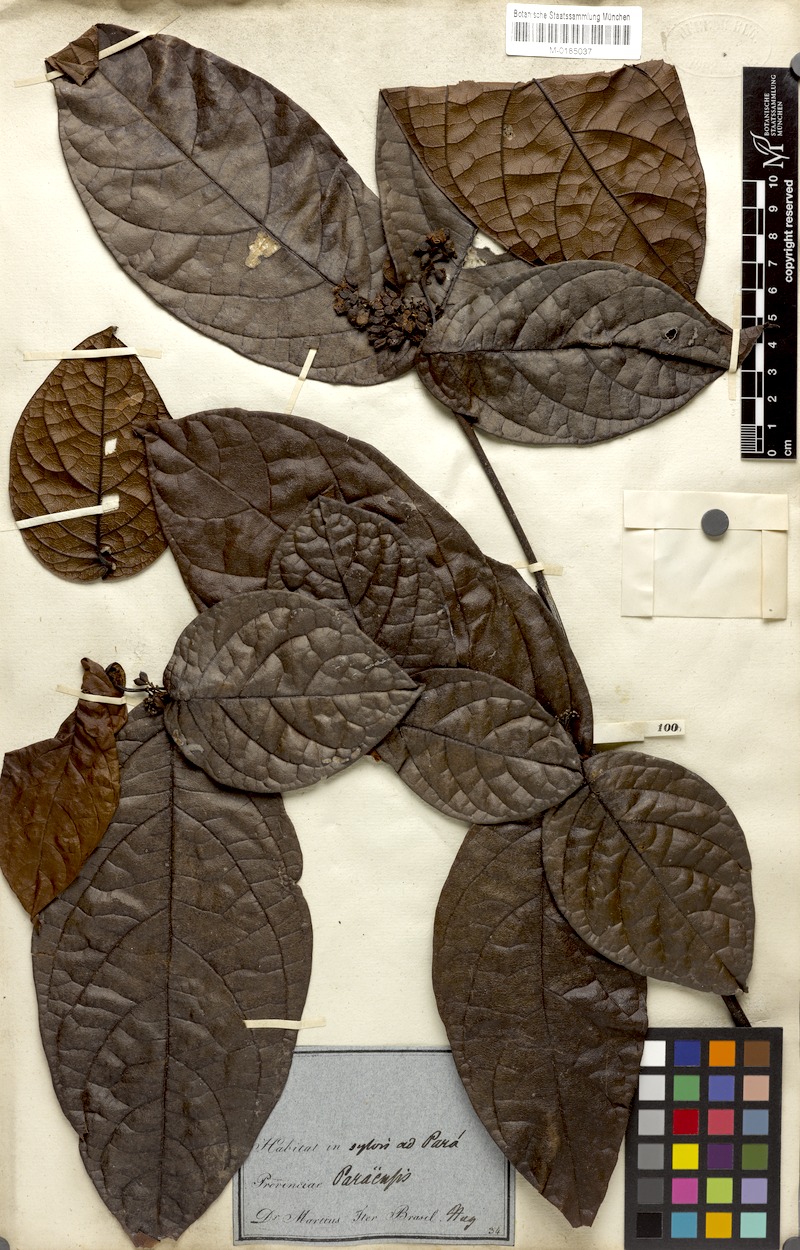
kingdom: Plantae
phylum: Tracheophyta
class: Magnoliopsida
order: Boraginales
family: Cordiaceae
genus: Cordia
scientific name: Cordia nodosa
